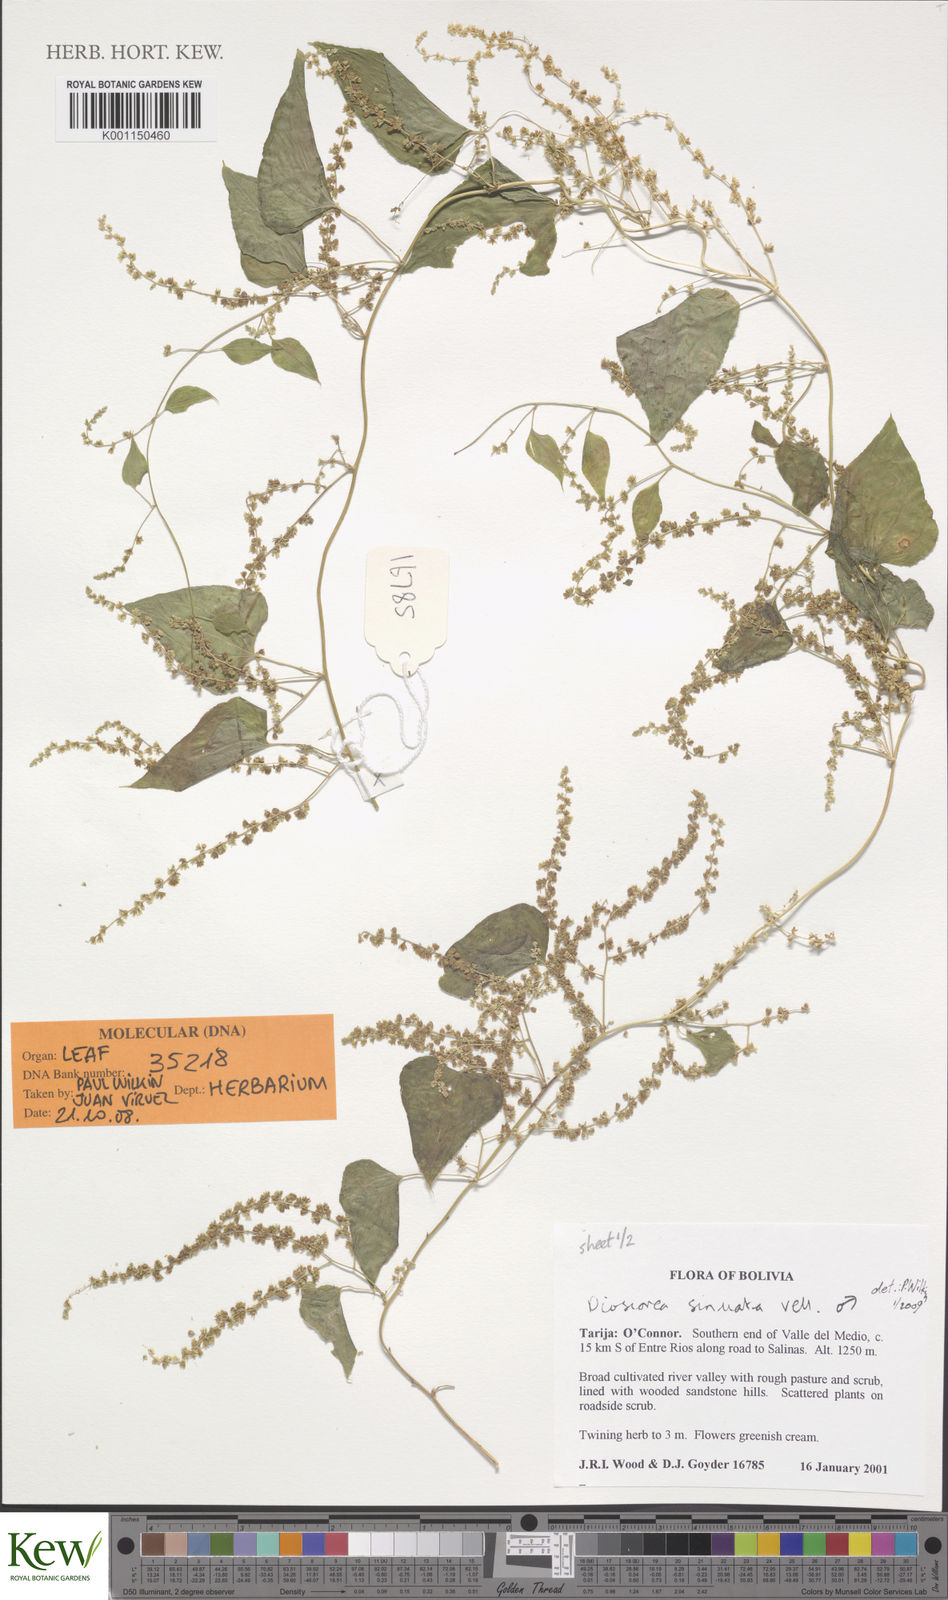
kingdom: Plantae
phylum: Tracheophyta
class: Liliopsida
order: Dioscoreales
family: Dioscoreaceae
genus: Dioscorea
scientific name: Dioscorea sinuata
